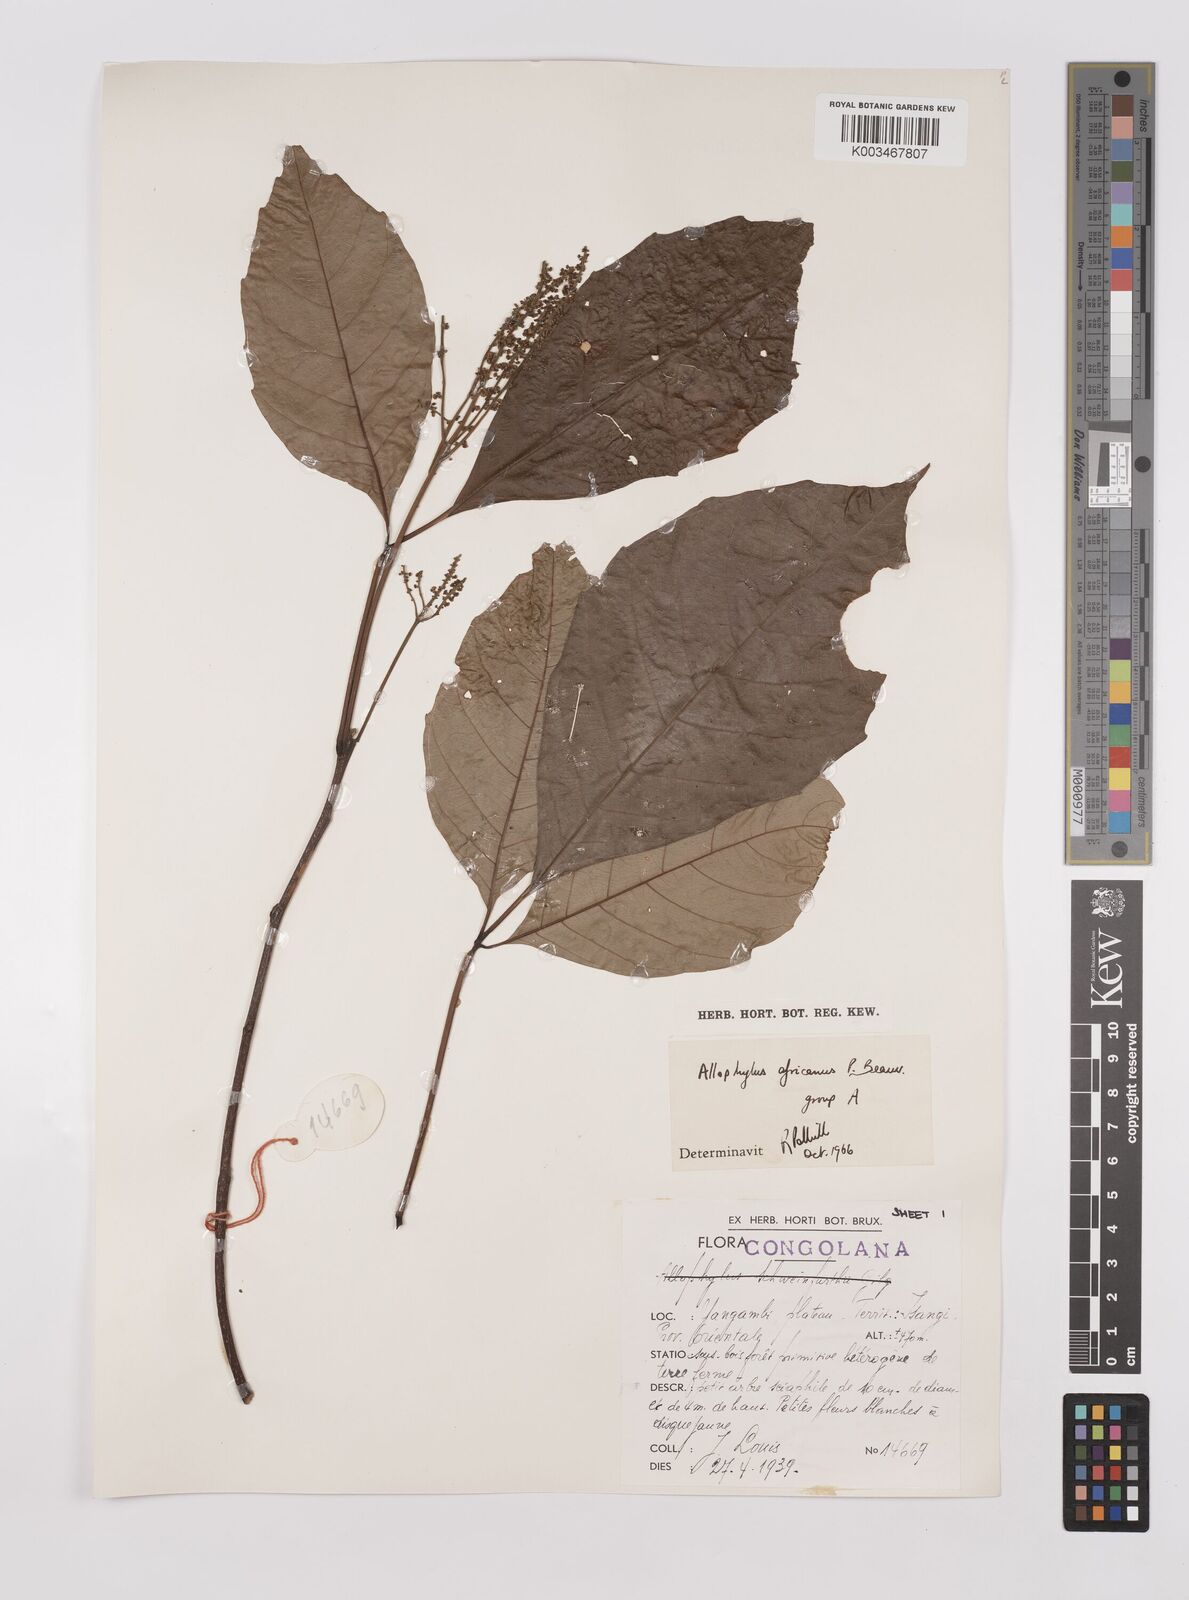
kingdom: Plantae
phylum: Tracheophyta
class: Magnoliopsida
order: Sapindales
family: Sapindaceae
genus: Allophylus
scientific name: Allophylus africanus
